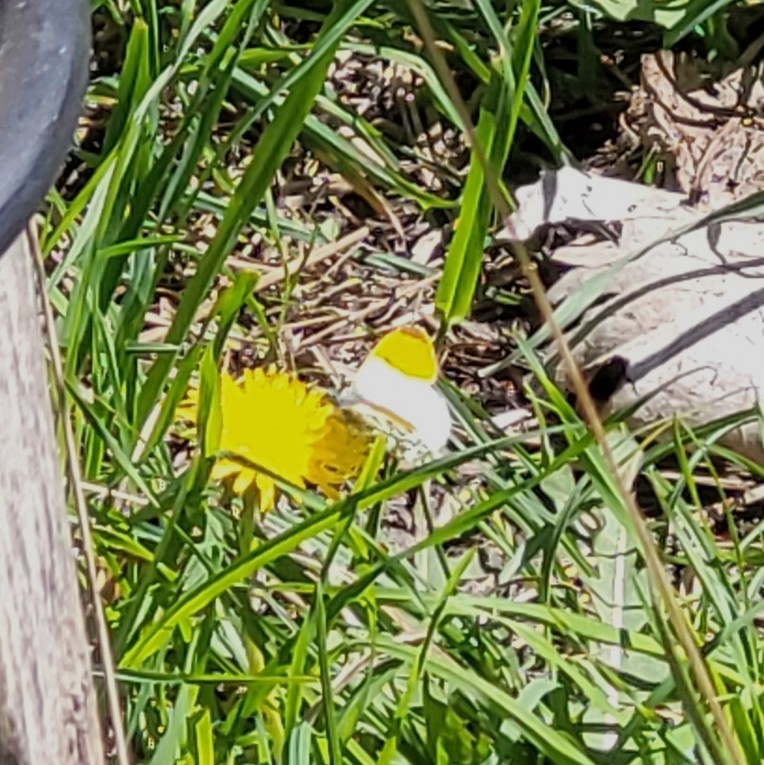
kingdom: Animalia
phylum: Arthropoda
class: Insecta
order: Lepidoptera
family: Pieridae
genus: Anthocharis
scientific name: Anthocharis cardamines
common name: Aurora
